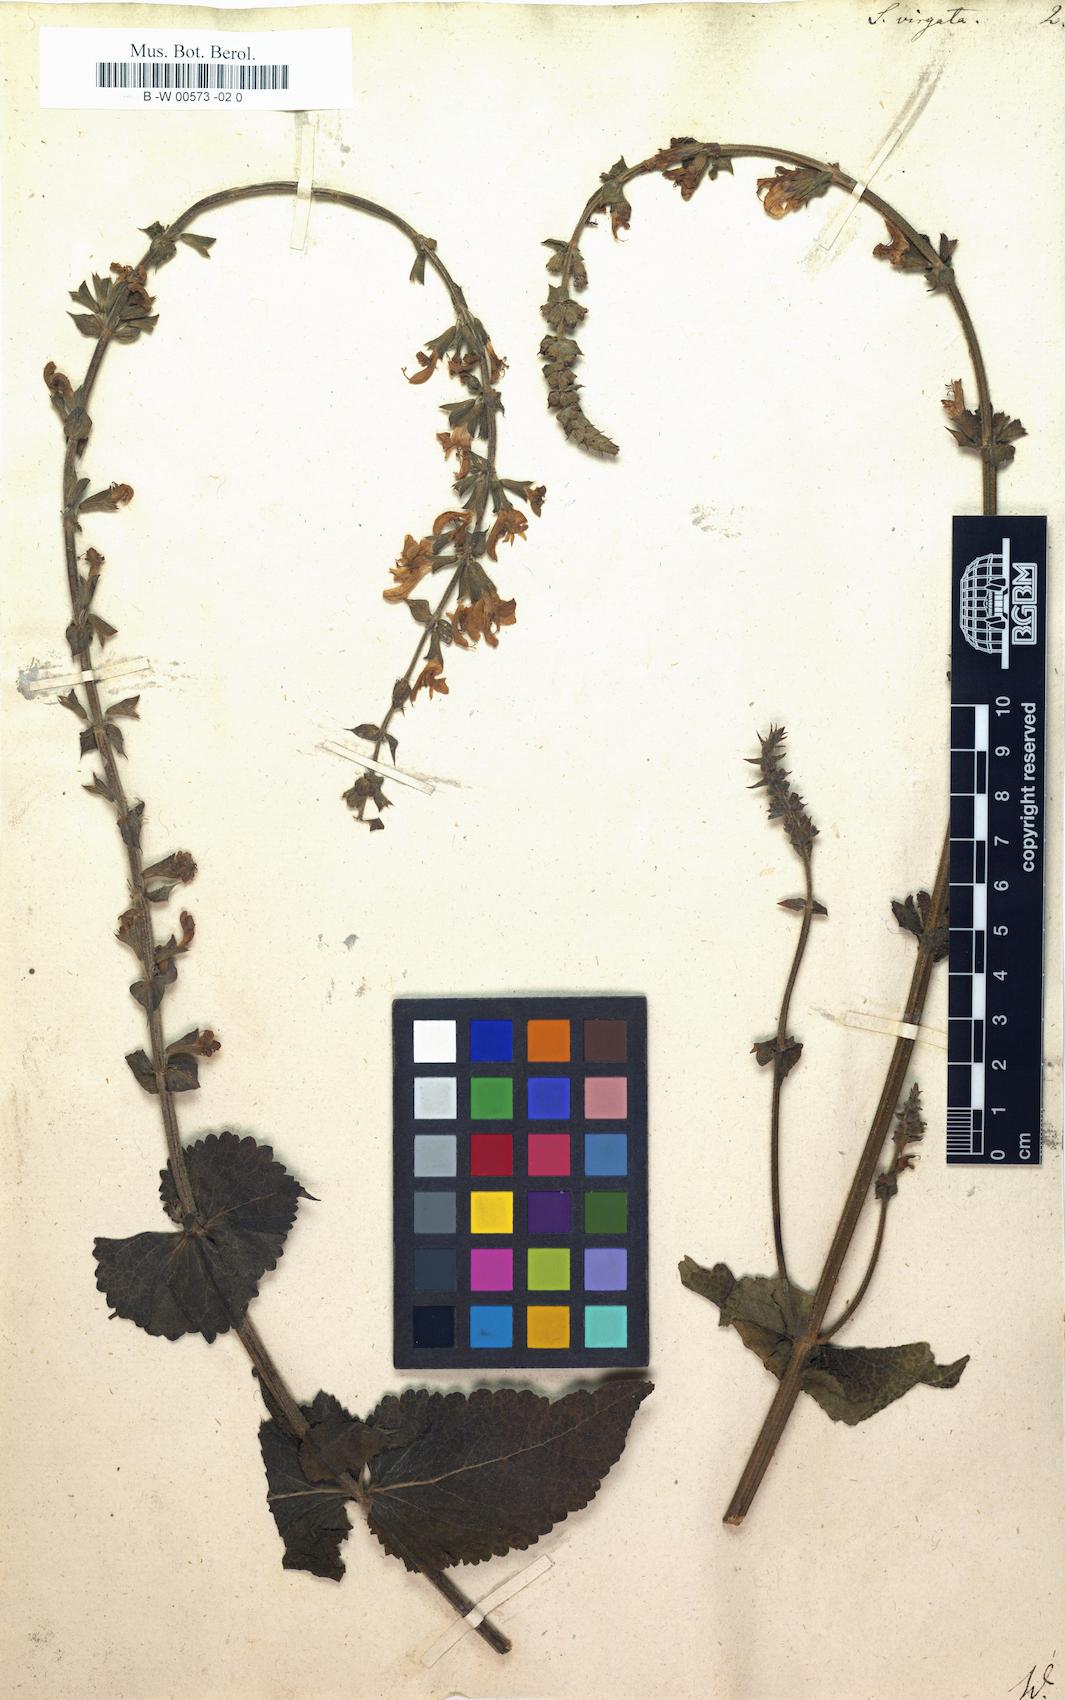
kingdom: Plantae
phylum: Tracheophyta
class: Magnoliopsida
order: Lamiales
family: Lamiaceae
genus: Salvia
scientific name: Salvia farinacea
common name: Mealy sage
